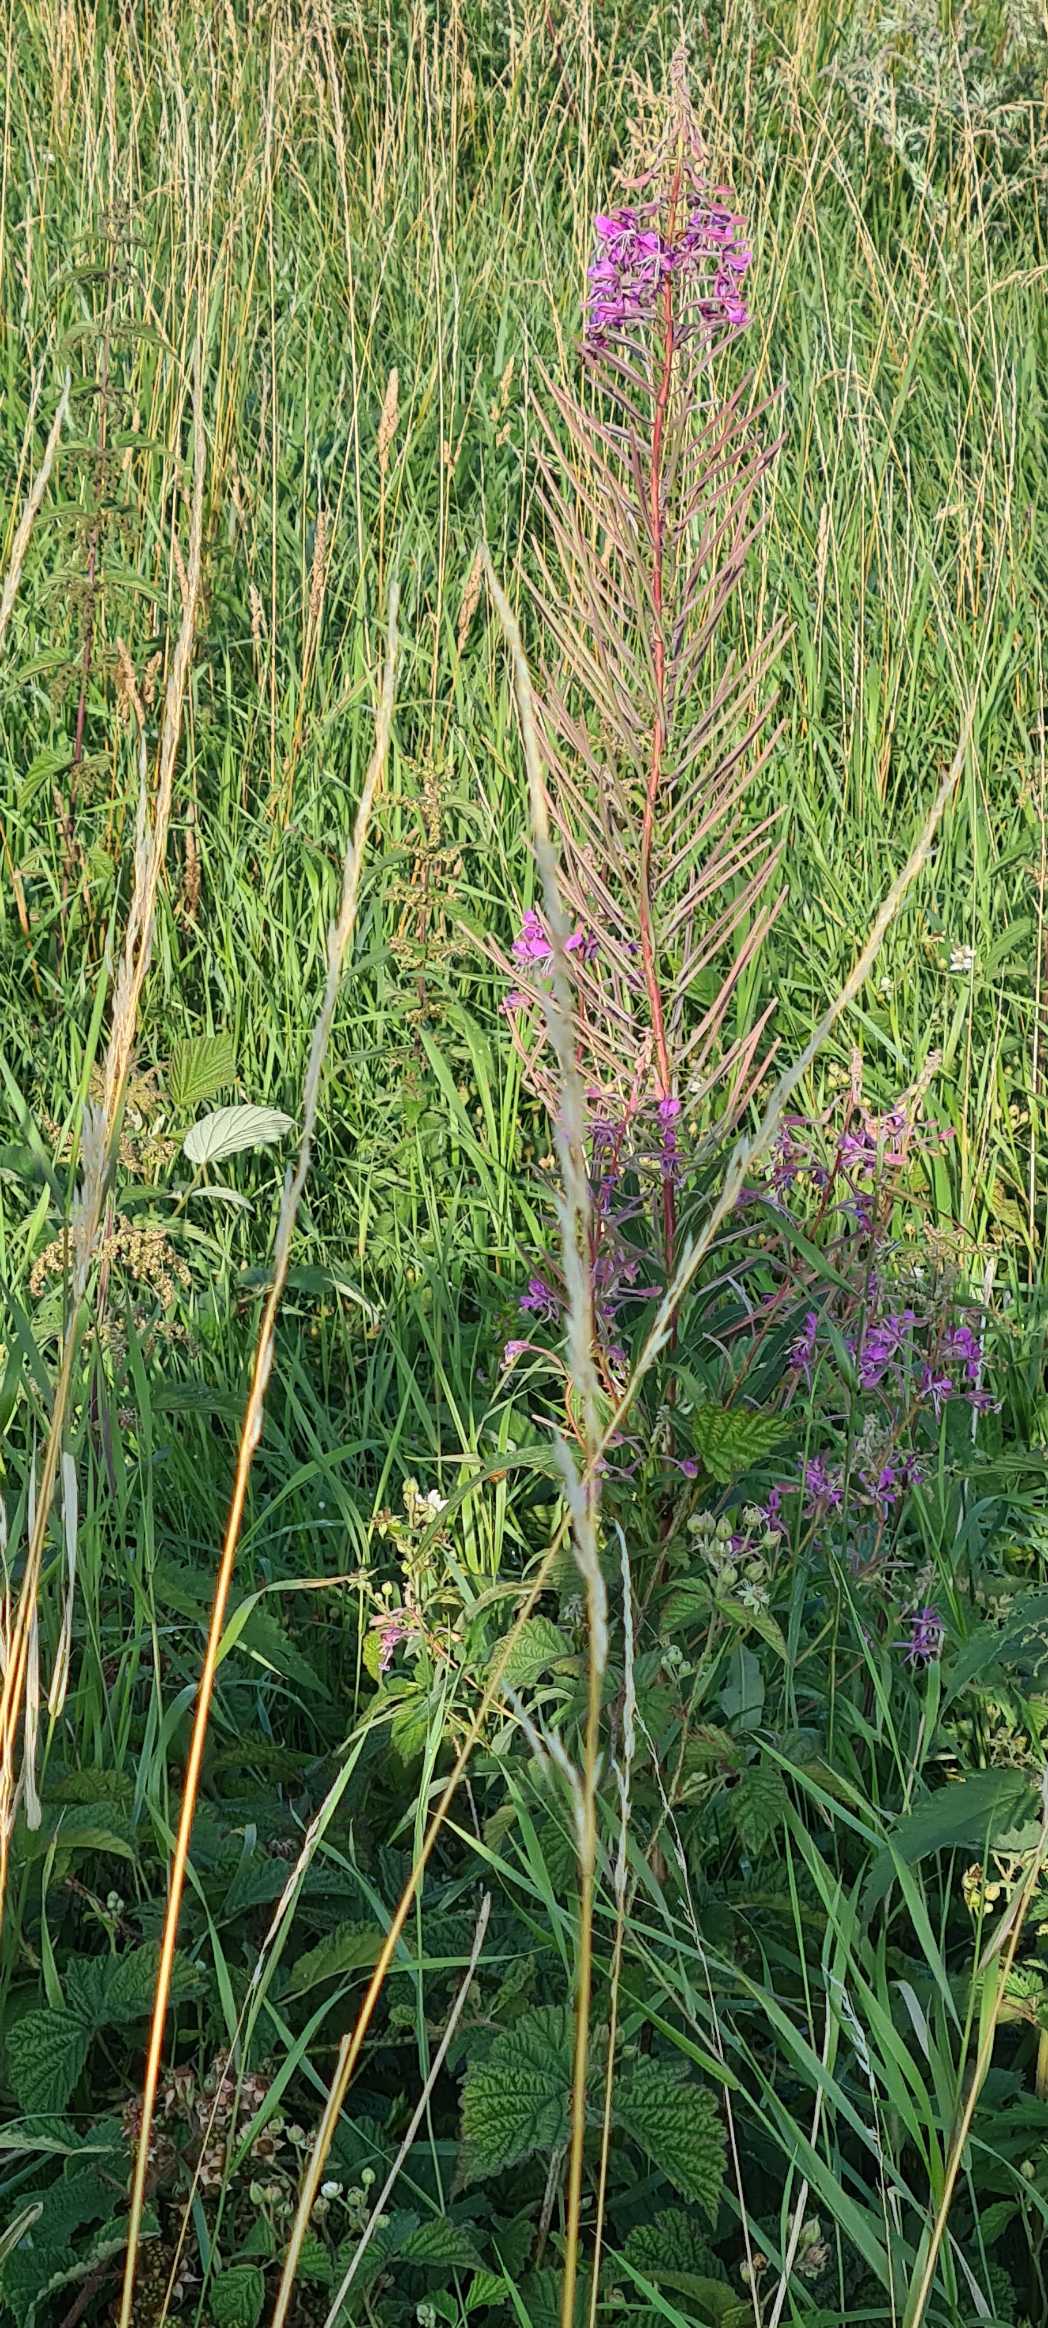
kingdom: Plantae
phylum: Tracheophyta
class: Magnoliopsida
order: Myrtales
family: Onagraceae
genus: Chamaenerion
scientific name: Chamaenerion angustifolium
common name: Gederams
